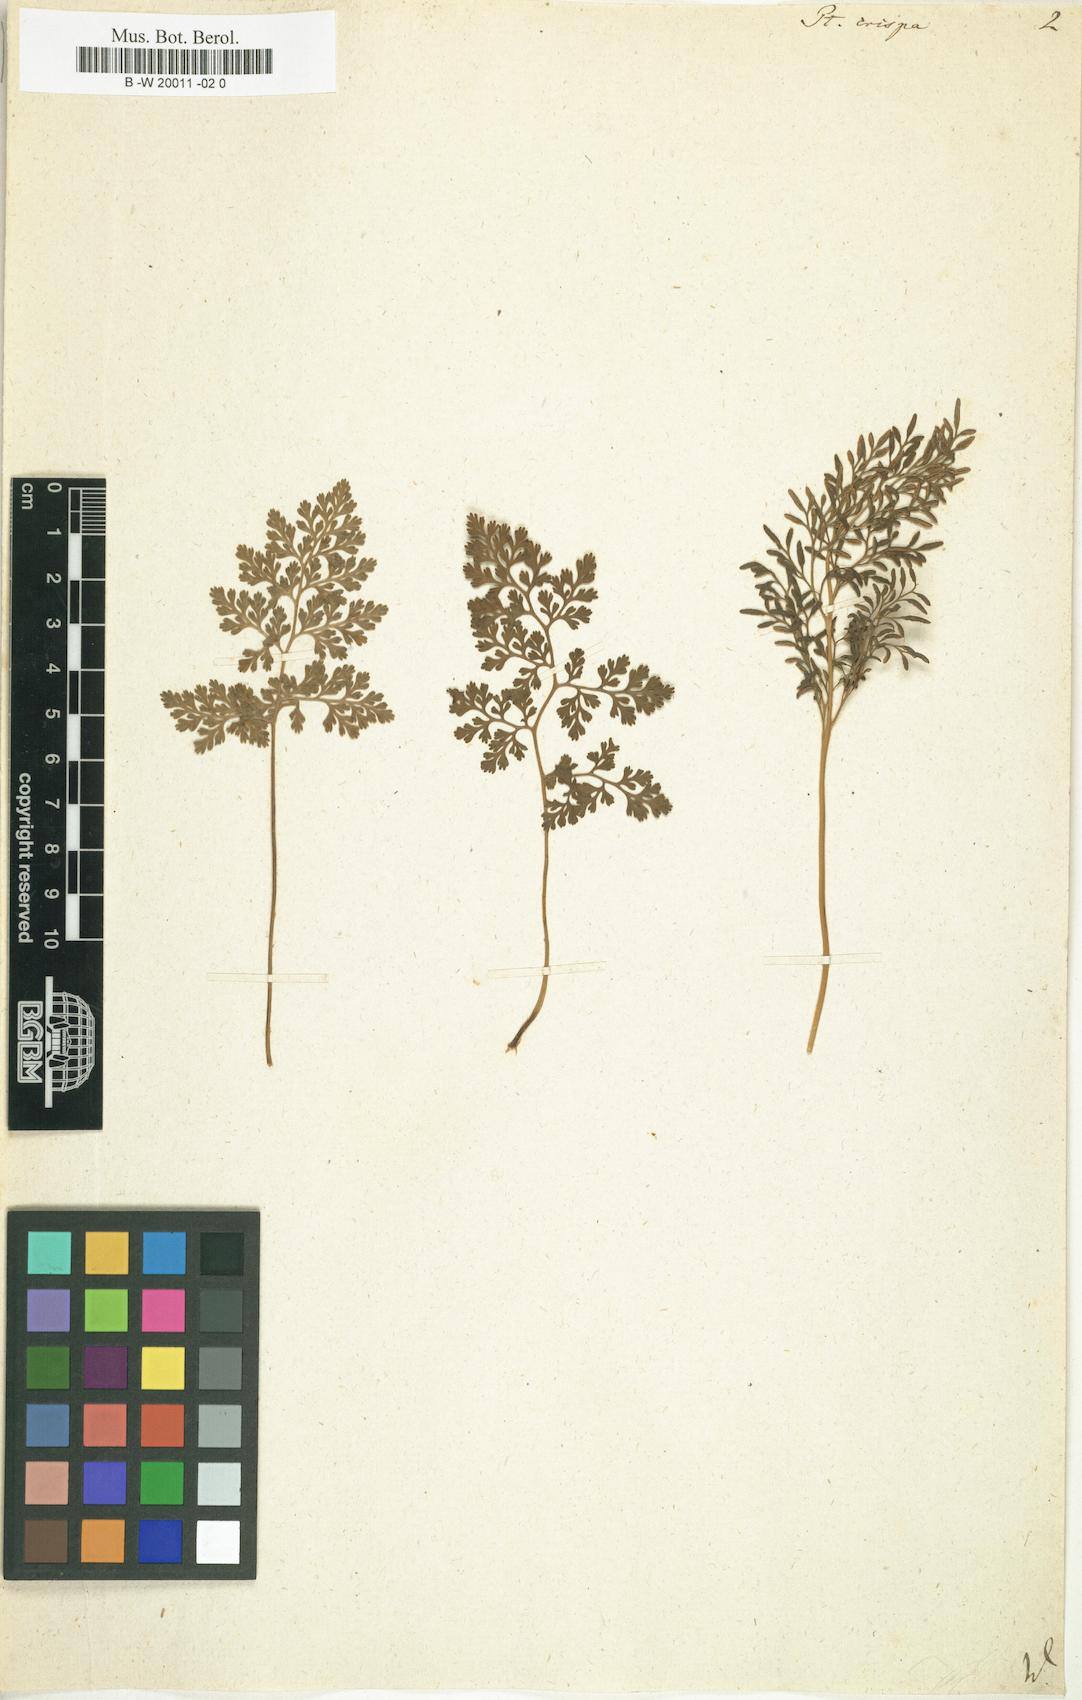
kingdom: Plantae
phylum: Tracheophyta
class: Polypodiopsida
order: Polypodiales
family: Pteridaceae
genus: Cryptogramma
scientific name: Cryptogramma crispa
